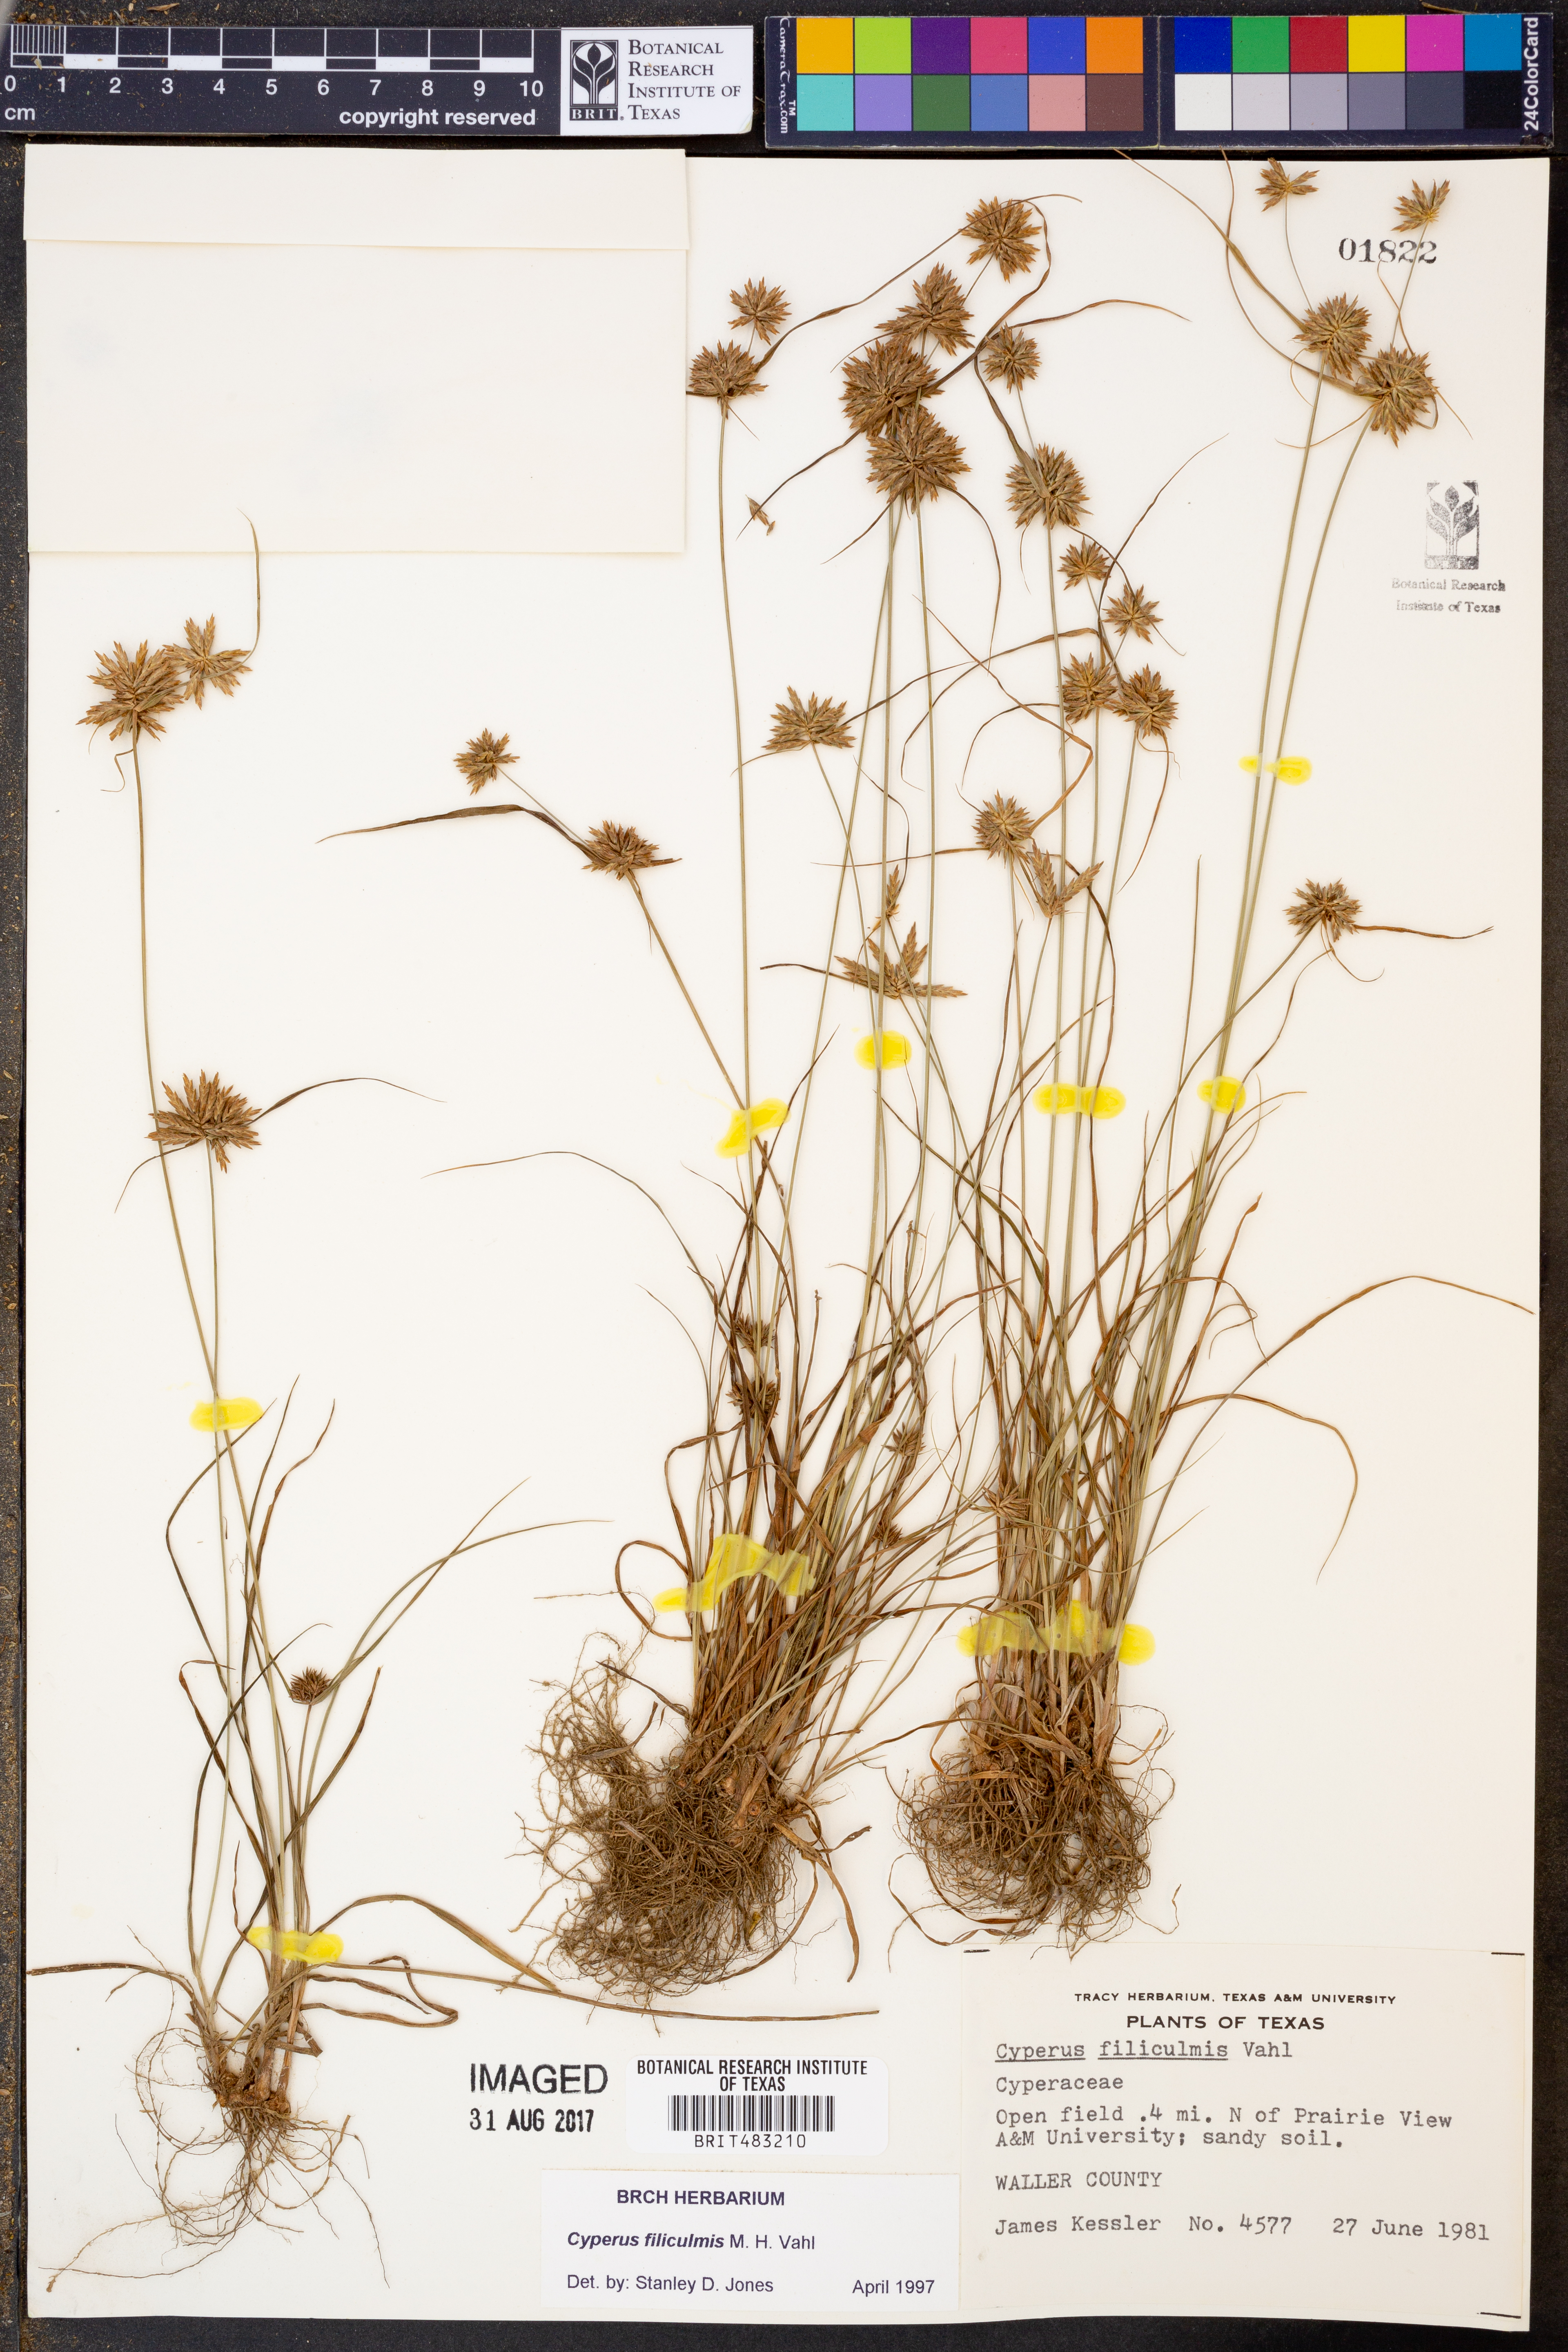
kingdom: Plantae
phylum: Tracheophyta
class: Liliopsida
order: Poales
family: Cyperaceae
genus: Cyperus
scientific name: Cyperus lanceolatus
